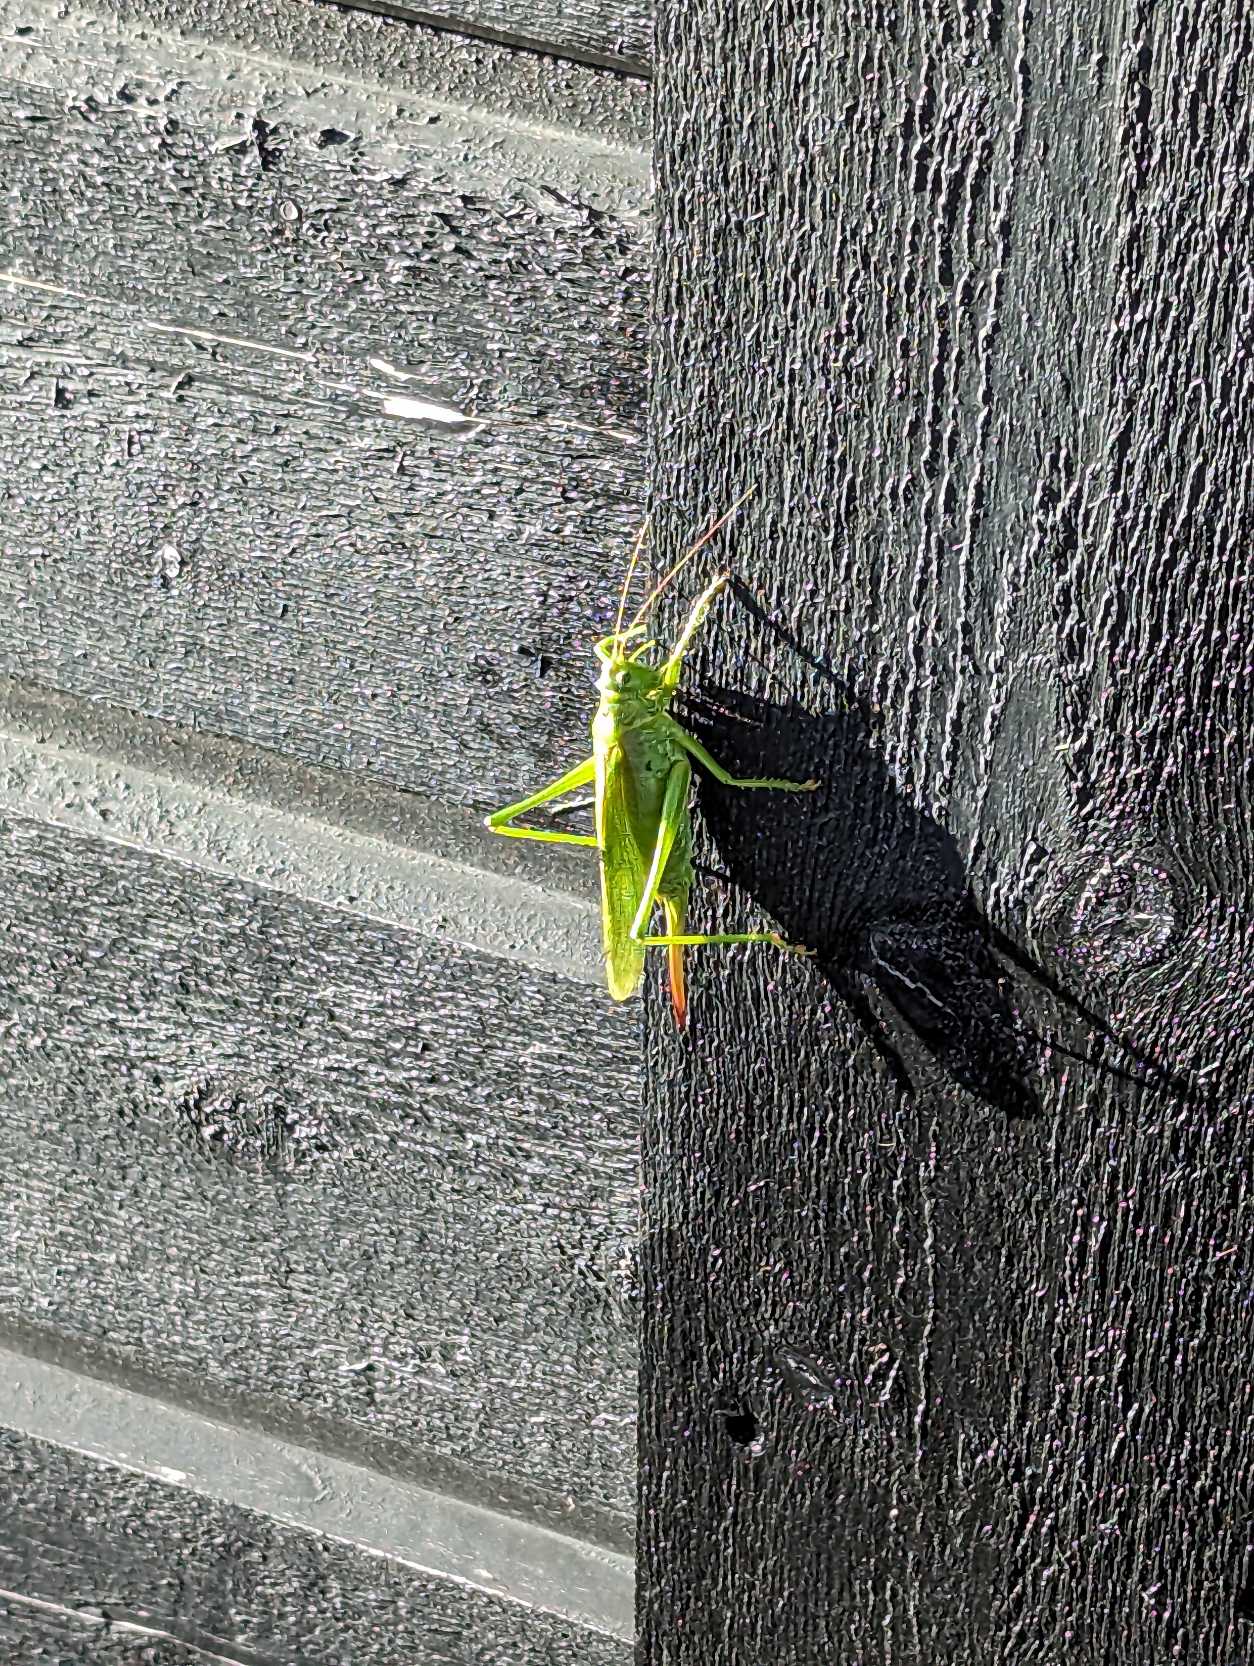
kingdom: Animalia
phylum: Arthropoda
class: Insecta
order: Orthoptera
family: Tettigoniidae
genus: Tettigonia
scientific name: Tettigonia viridissima
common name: Stor grøn løvgræshoppe
